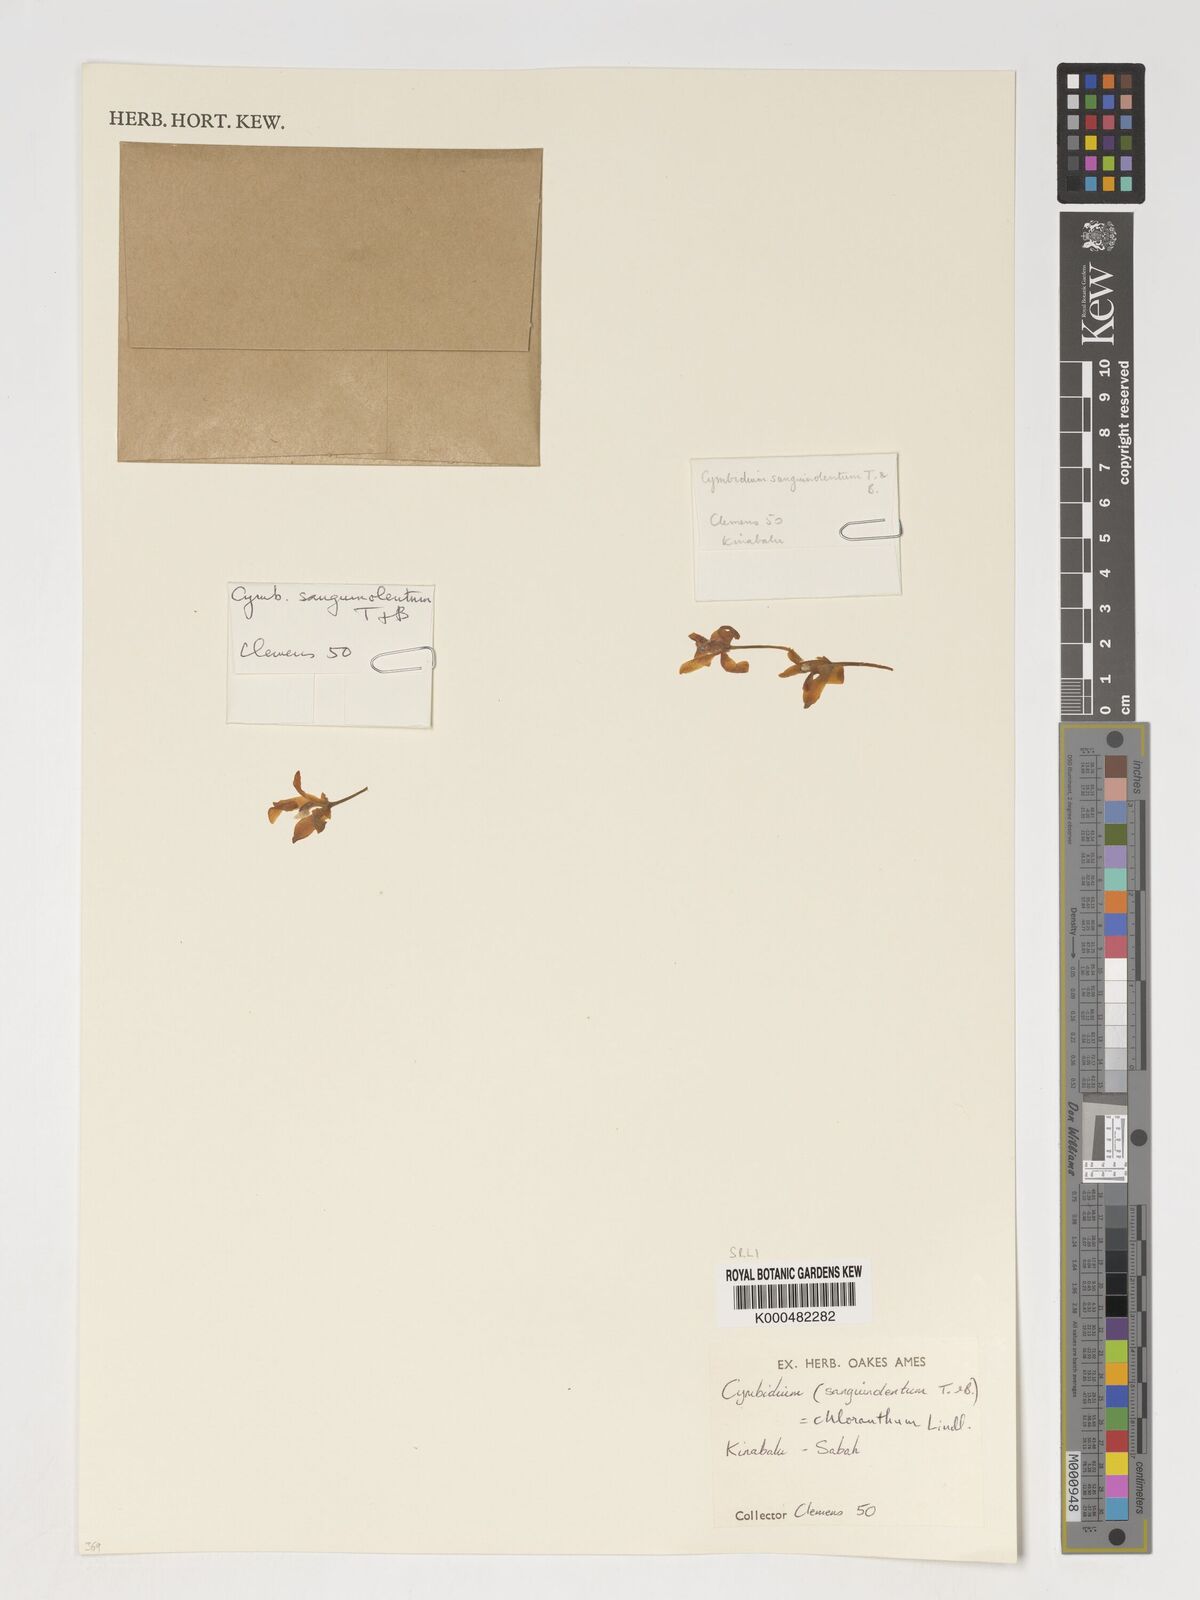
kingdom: Plantae
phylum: Tracheophyta
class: Liliopsida
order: Asparagales
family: Orchidaceae
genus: Cymbidium
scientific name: Cymbidium
